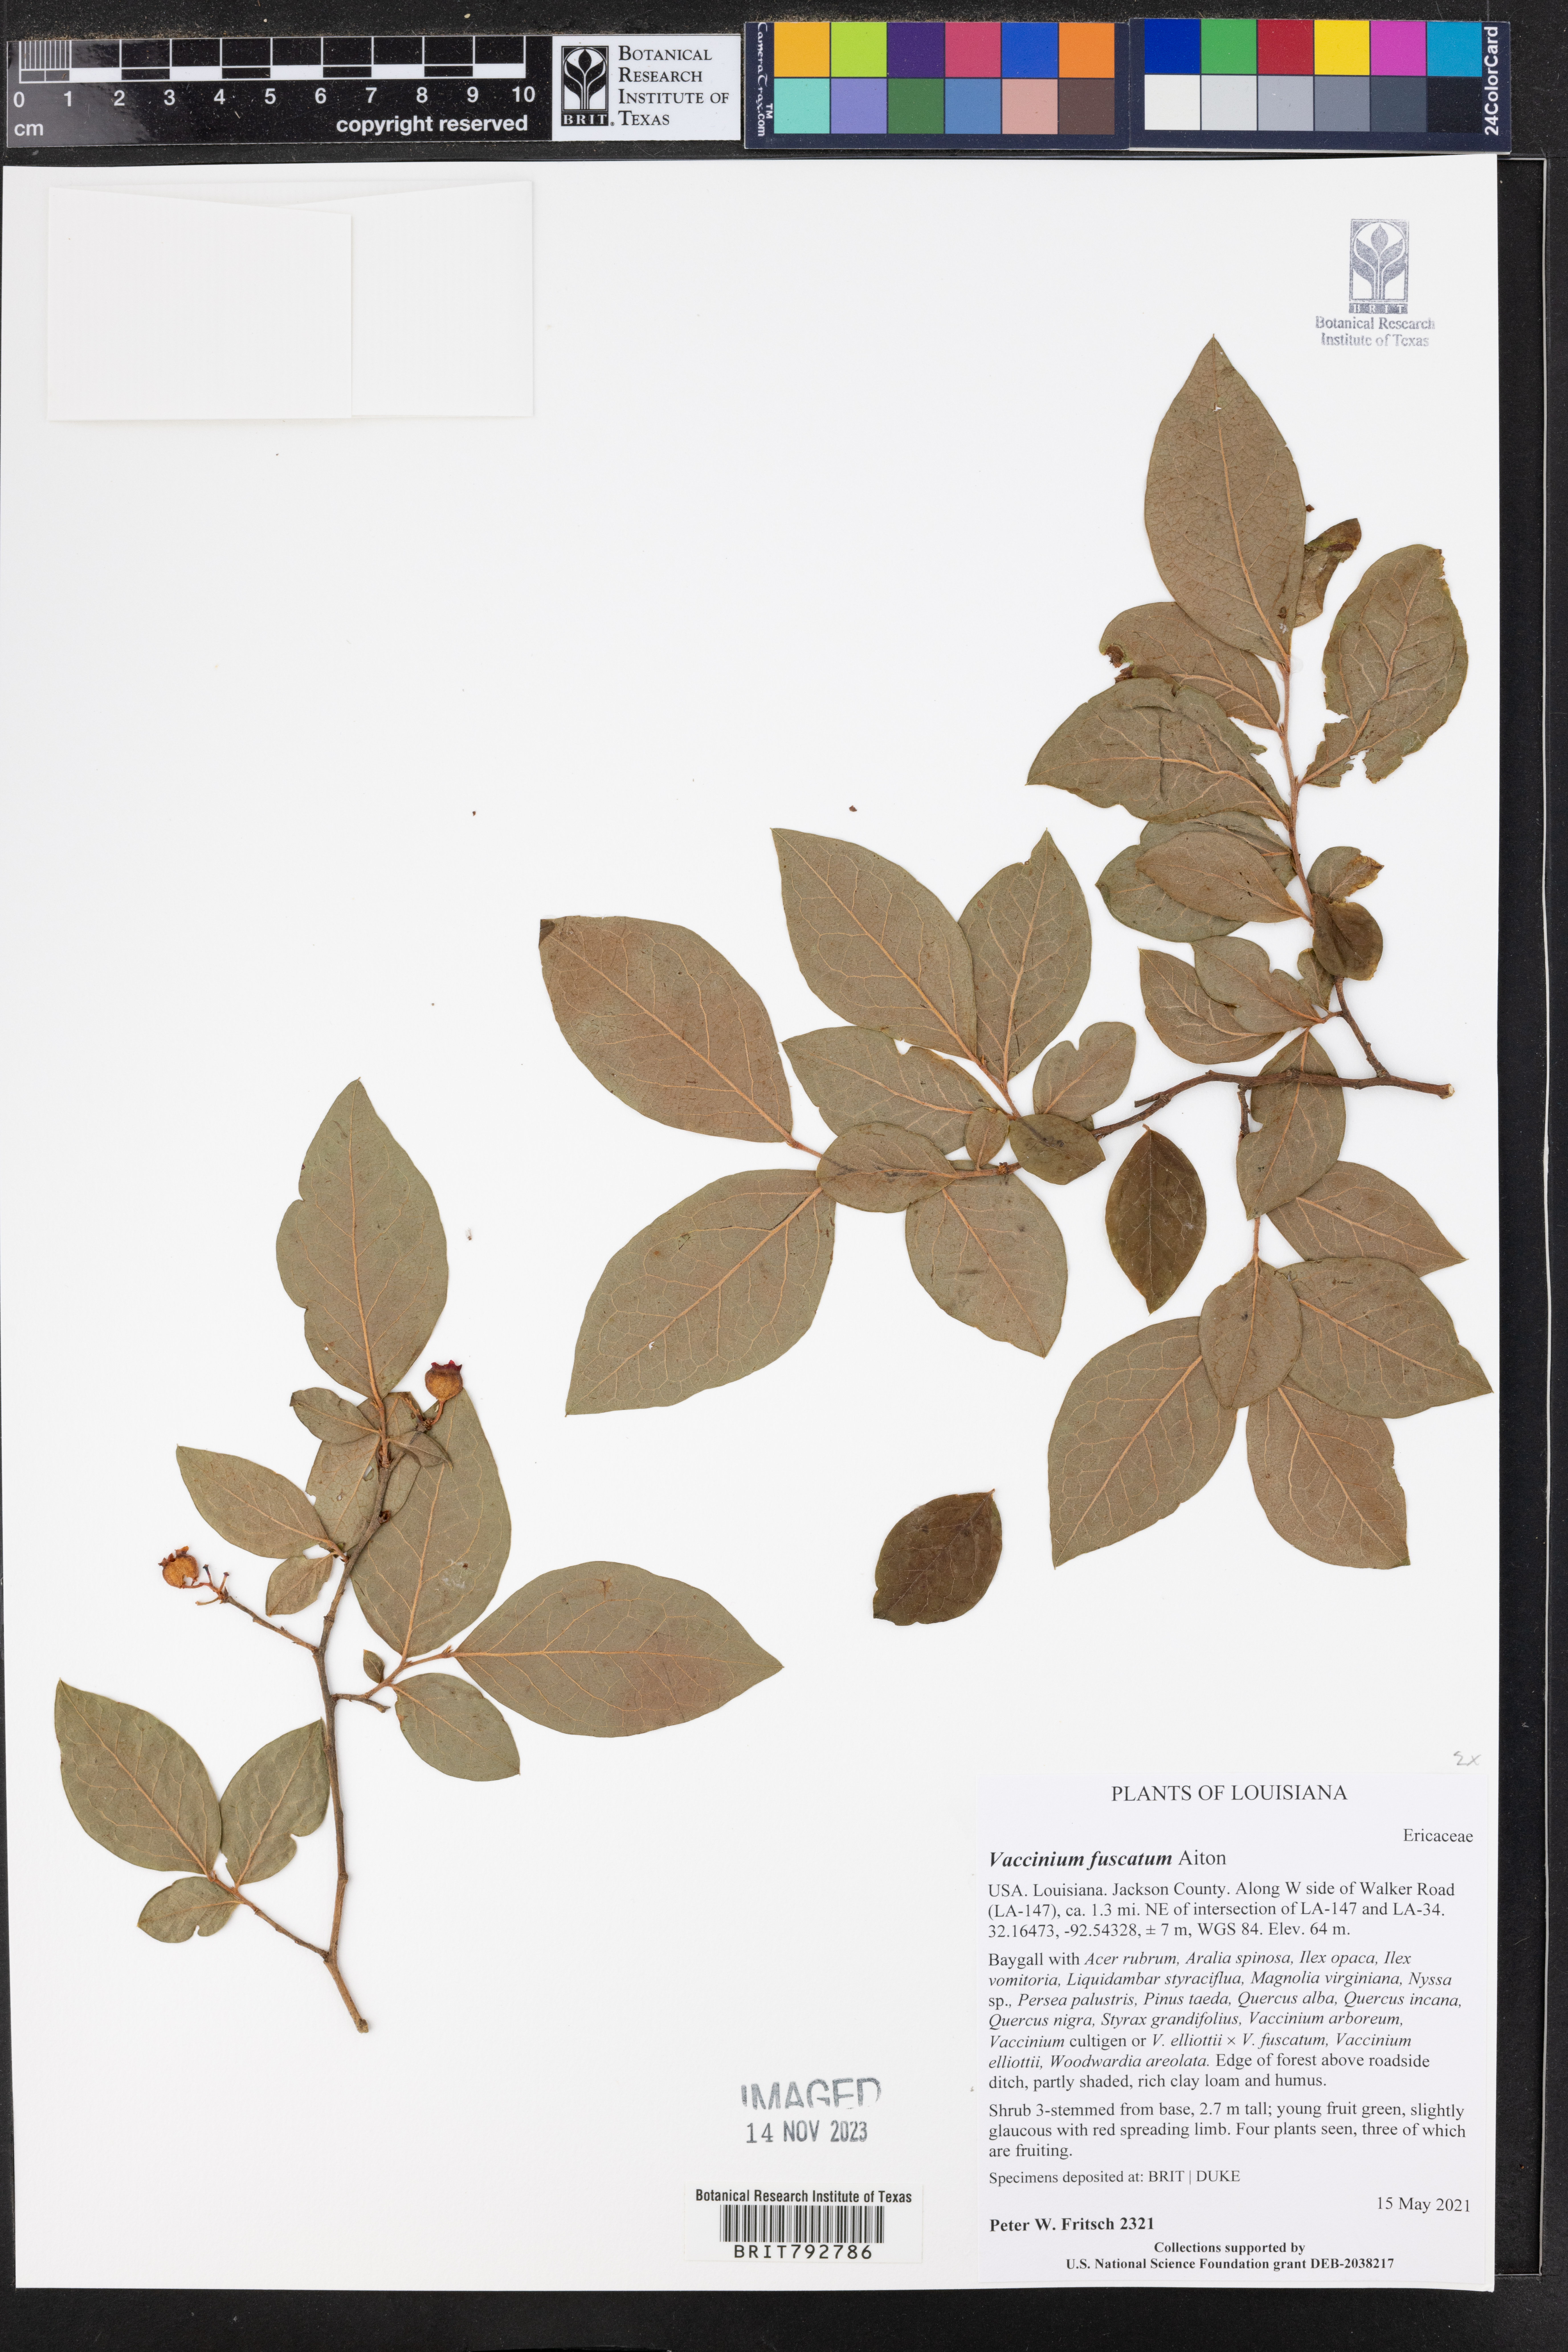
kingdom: Plantae
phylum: Tracheophyta
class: Magnoliopsida
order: Ericales
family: Ericaceae
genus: Vaccinium
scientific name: Vaccinium corymbosum
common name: Blueberry
